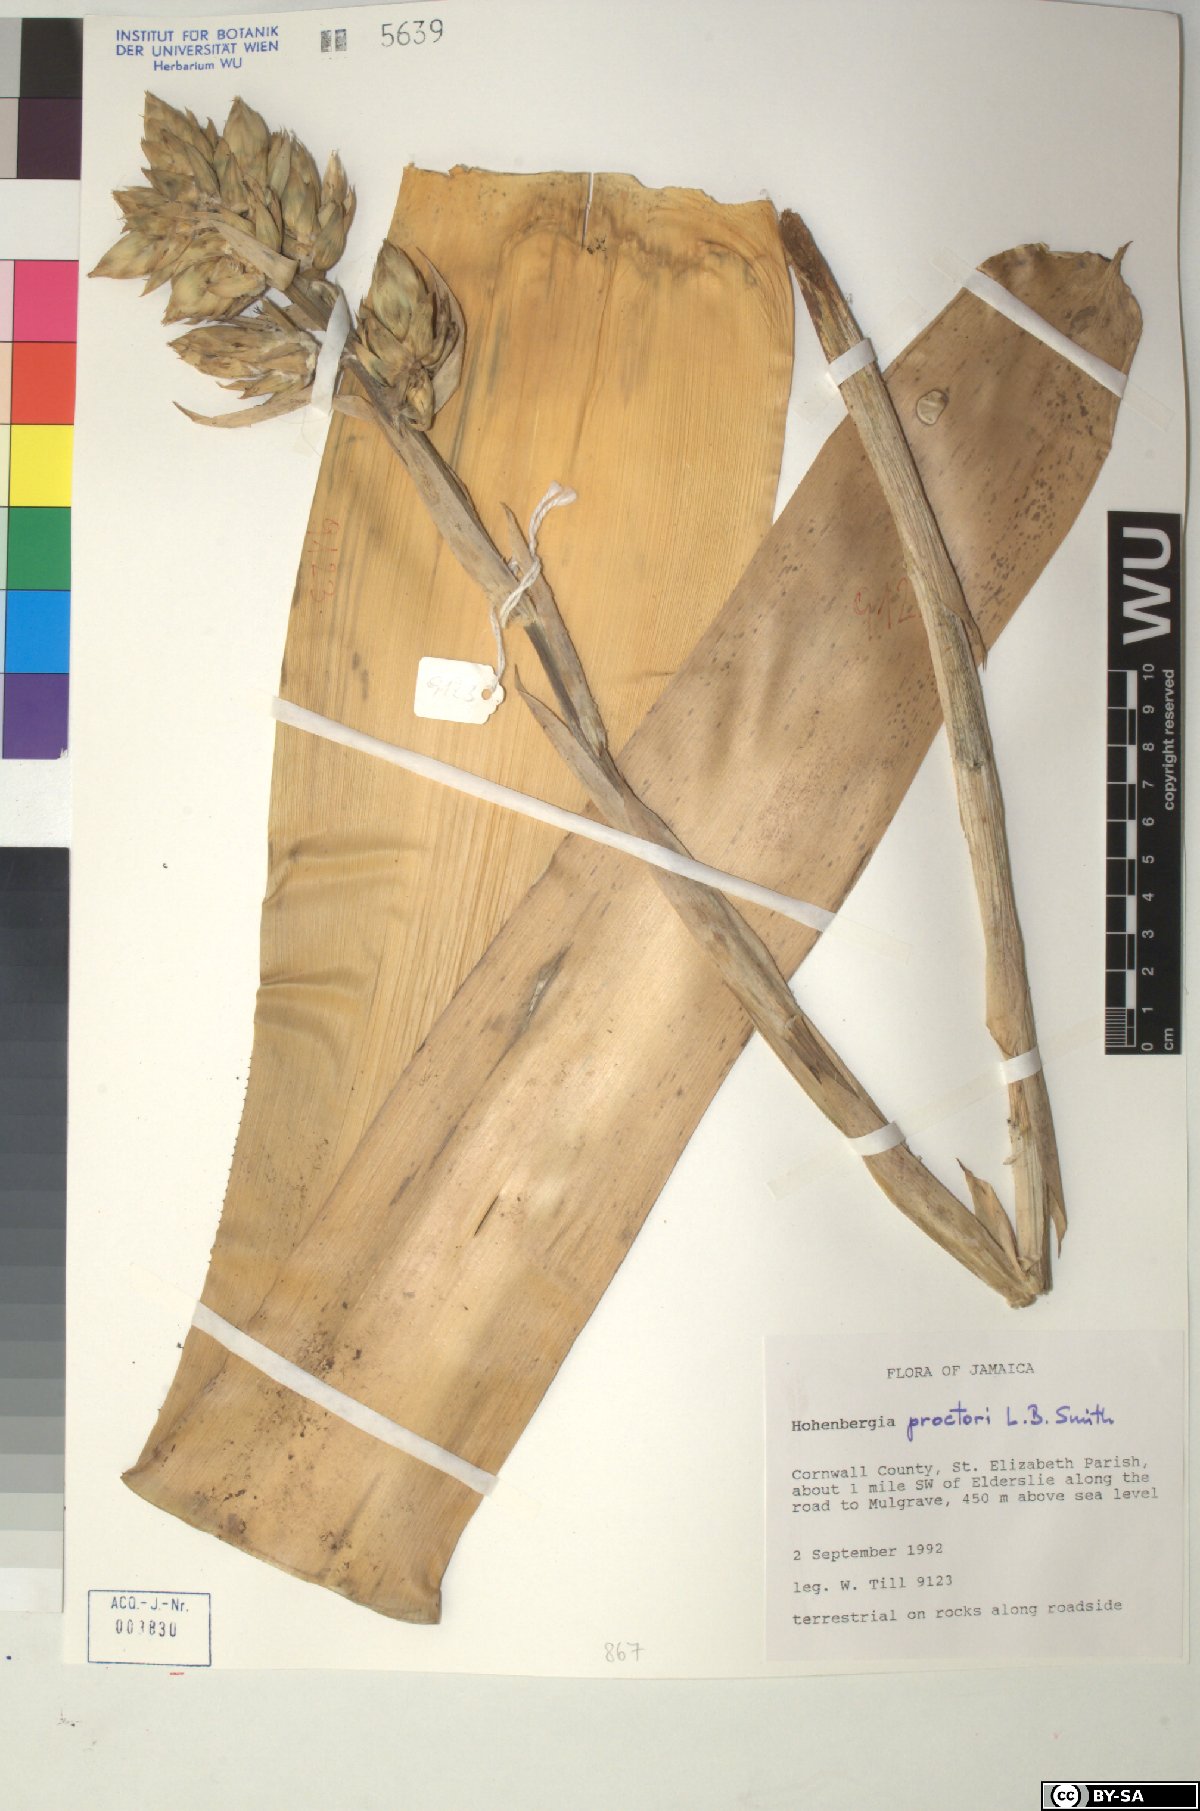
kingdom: Plantae
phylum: Tracheophyta
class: Liliopsida
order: Poales
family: Bromeliaceae
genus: Wittmackia
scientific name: Wittmackia urbaniana
